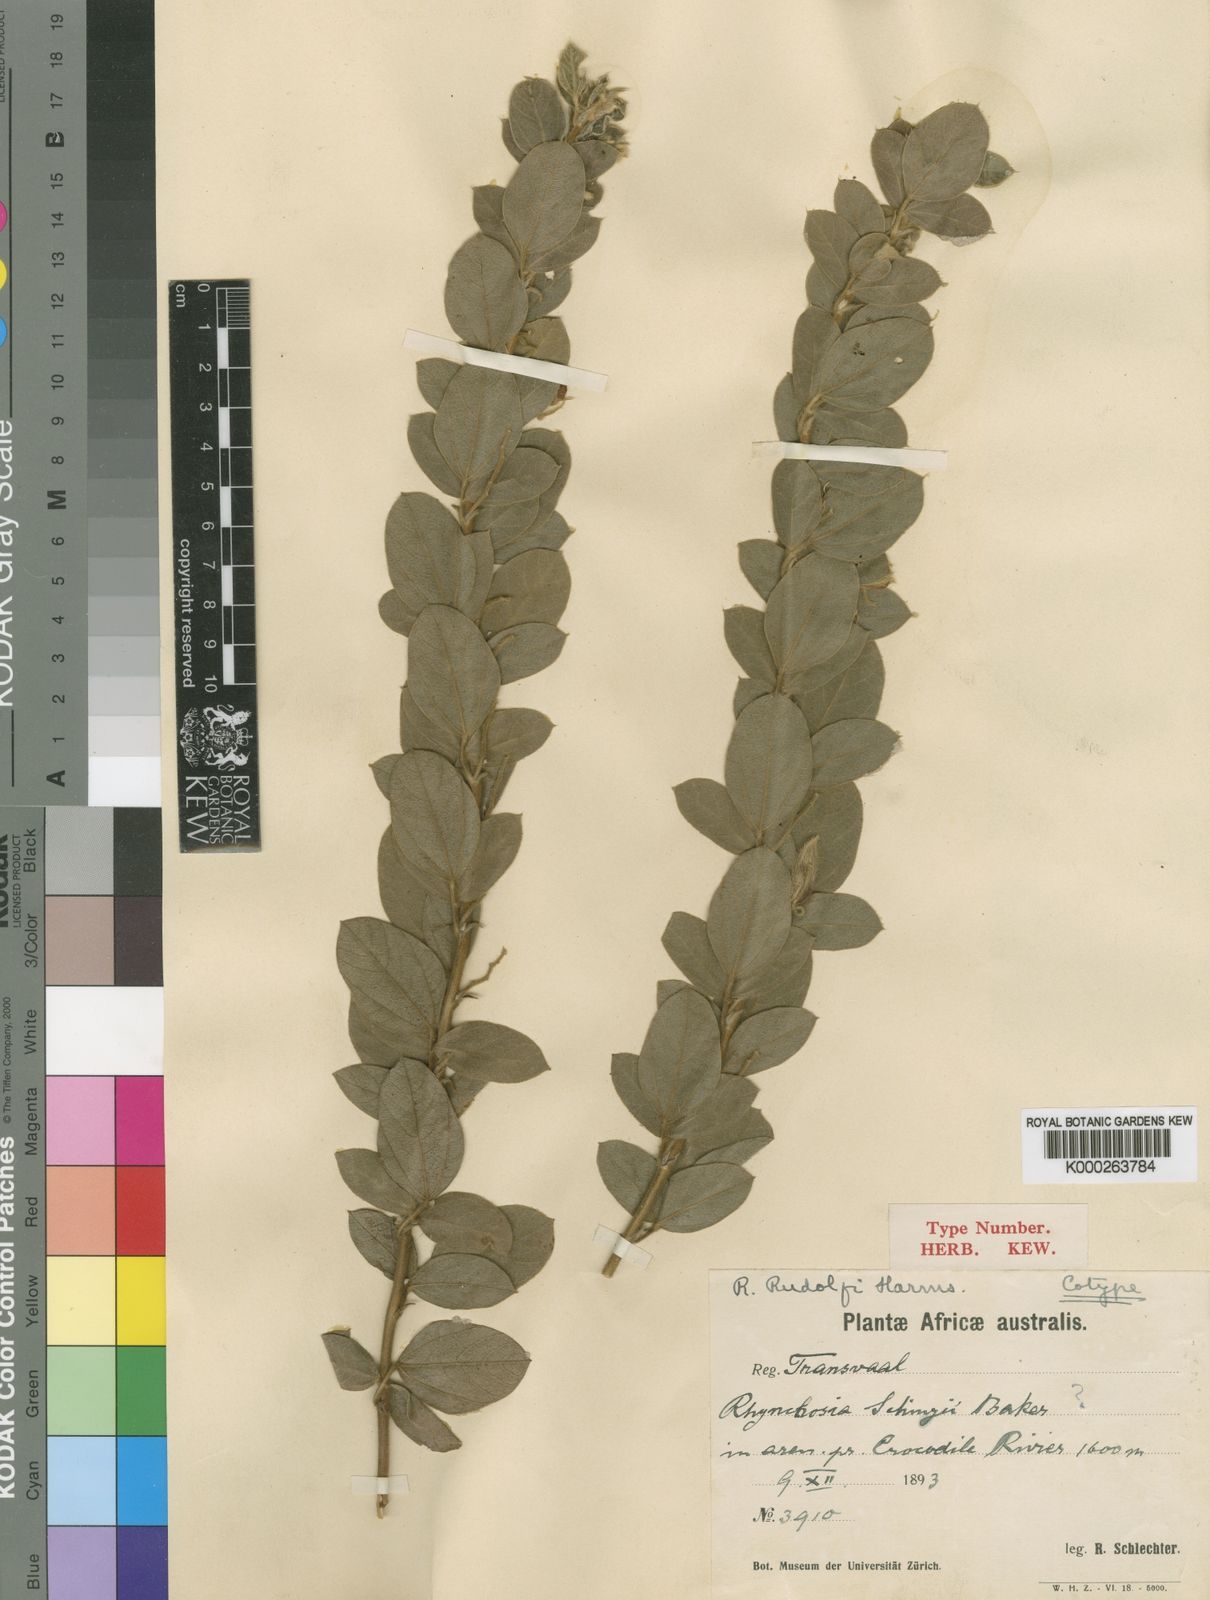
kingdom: Plantae
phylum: Tracheophyta
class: Magnoliopsida
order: Fabales
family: Fabaceae
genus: Rhynchosia
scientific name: Rhynchosia rudolfii
